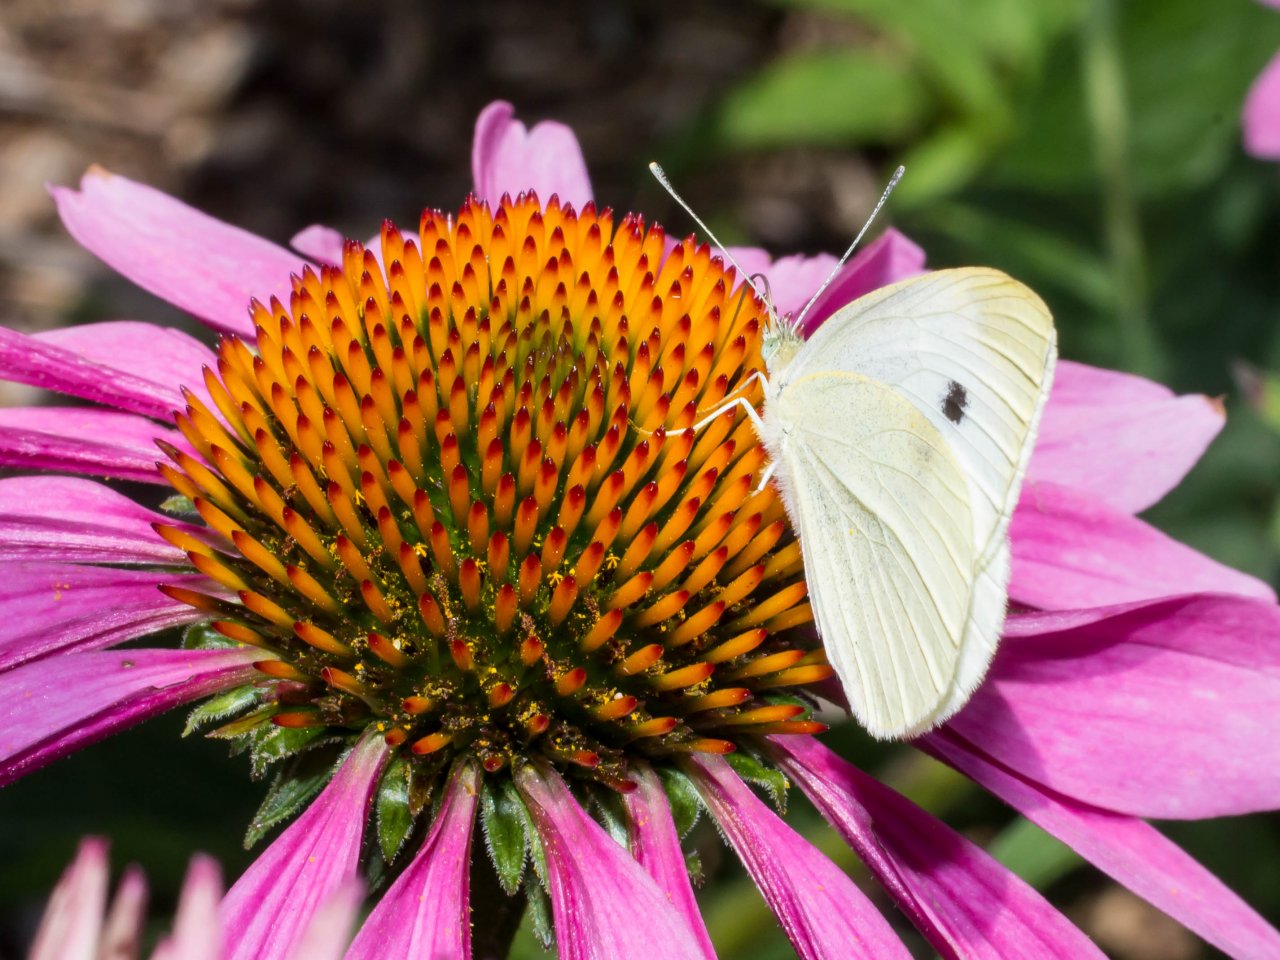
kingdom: Animalia
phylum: Arthropoda
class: Insecta
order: Lepidoptera
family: Pieridae
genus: Pieris
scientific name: Pieris rapae
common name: Cabbage White
